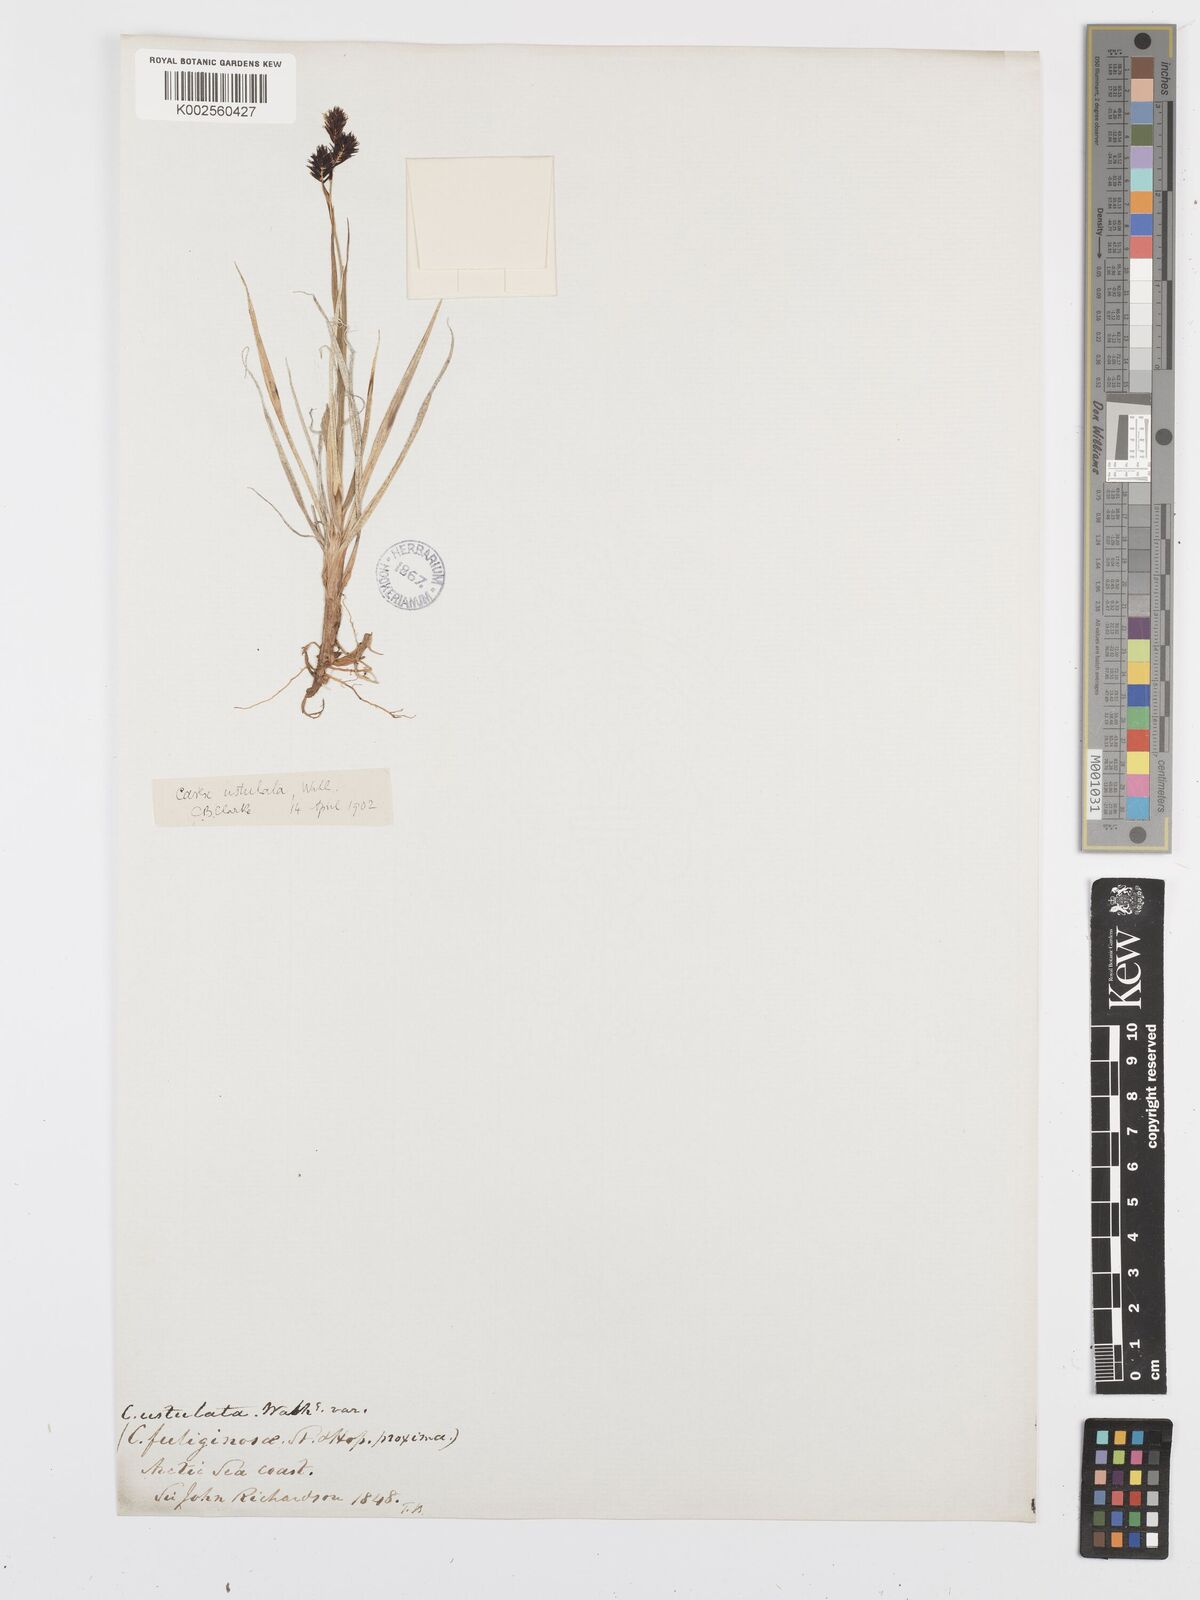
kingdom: Plantae
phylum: Tracheophyta
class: Liliopsida
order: Poales
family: Cyperaceae
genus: Carex
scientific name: Carex atrofusca
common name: Scorched alpine-sedge
